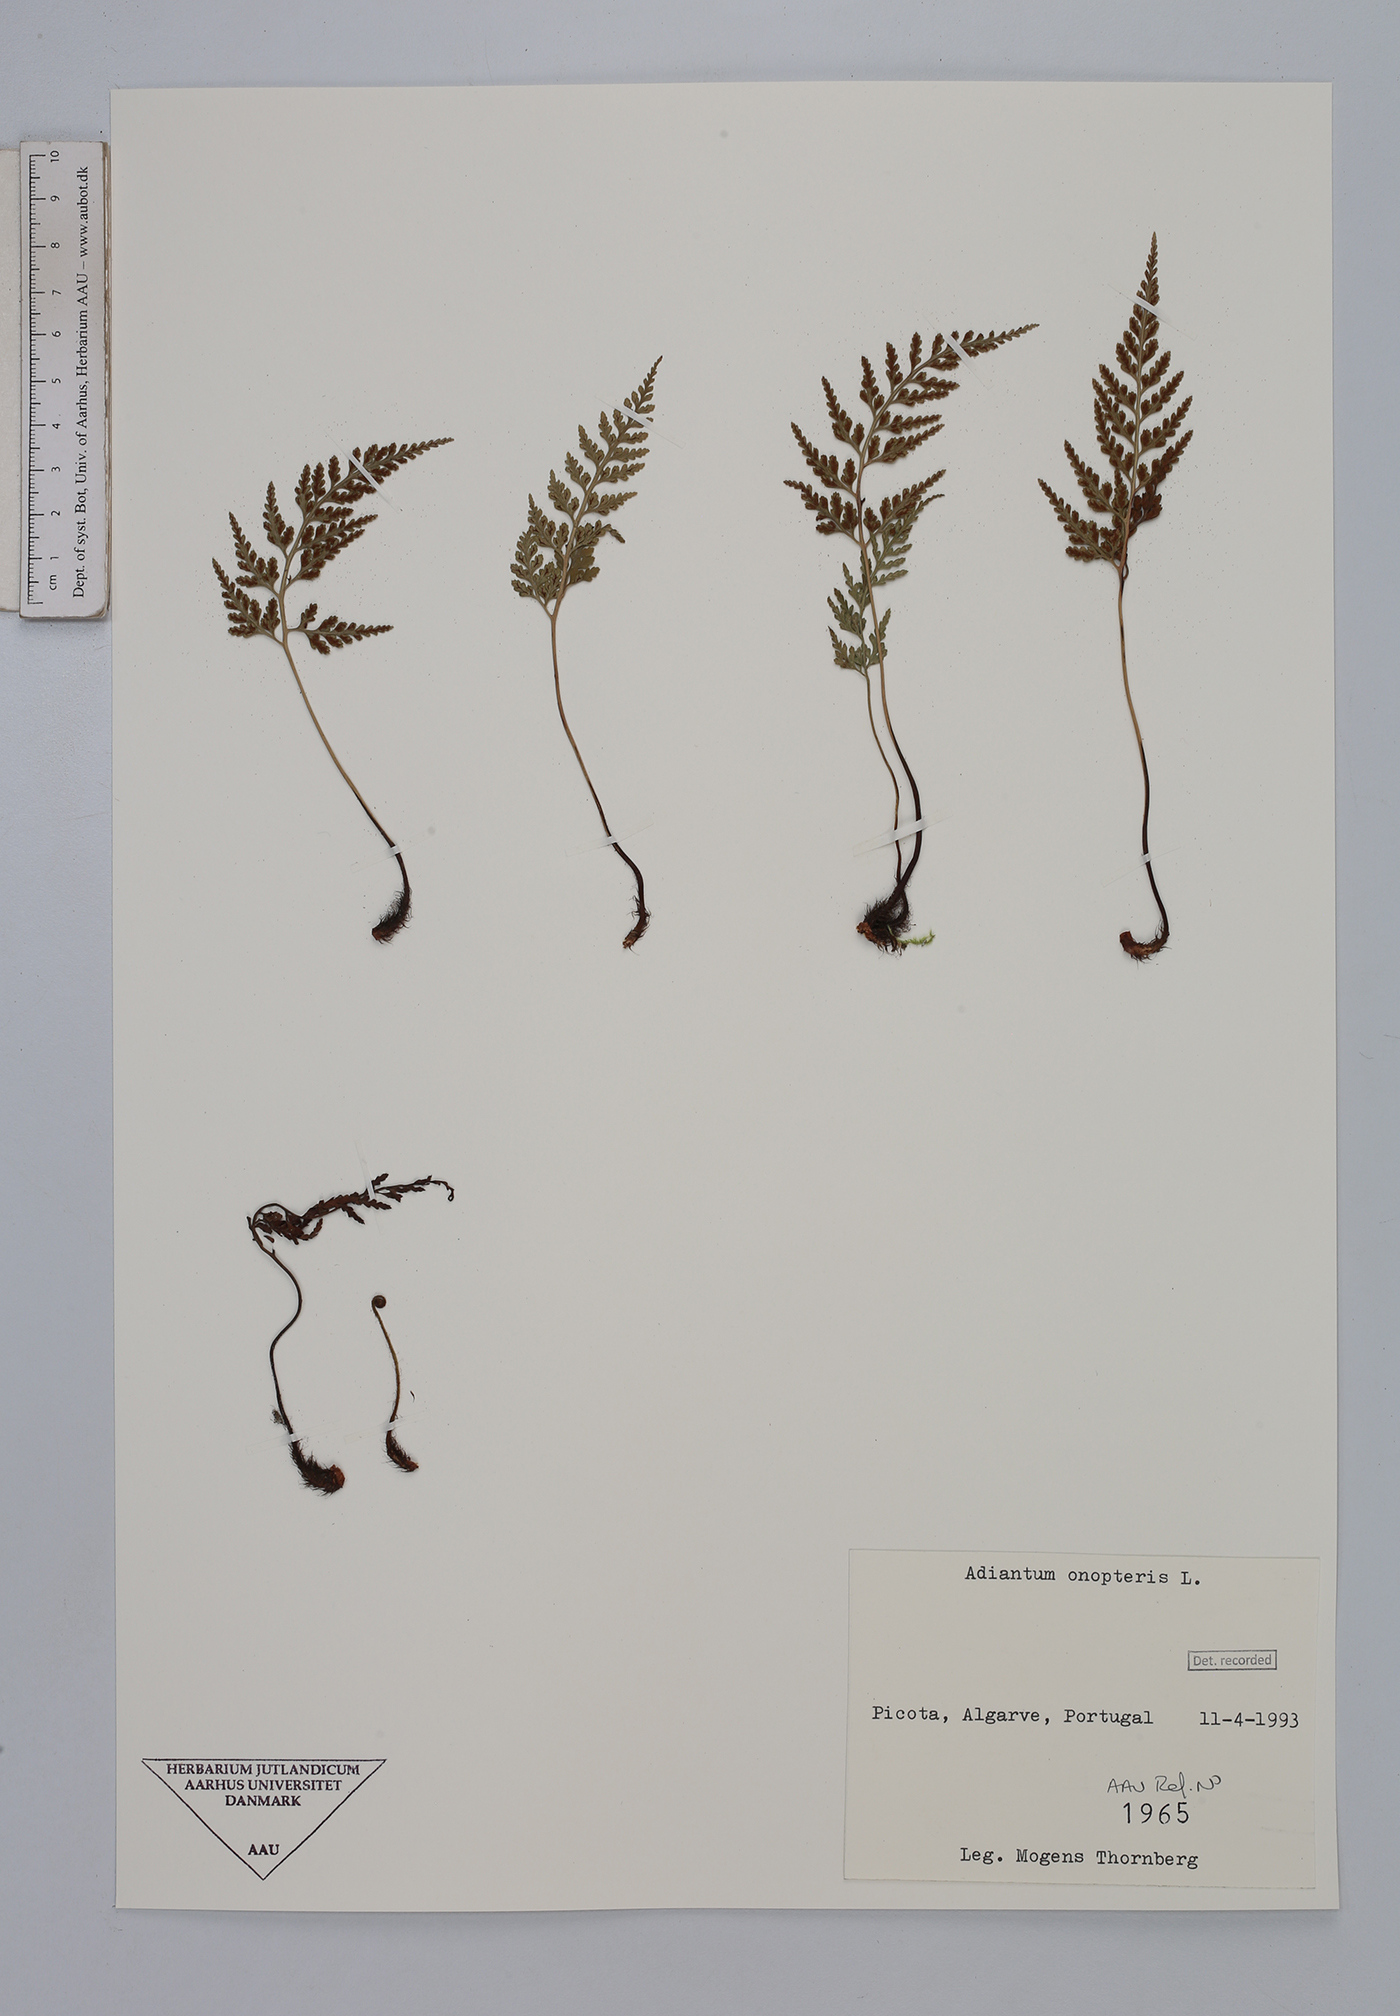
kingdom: Plantae
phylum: Tracheophyta
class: Polypodiopsida
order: Polypodiales
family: Aspleniaceae
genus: Asplenium
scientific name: Asplenium onopteris
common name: Irish spleenwort
